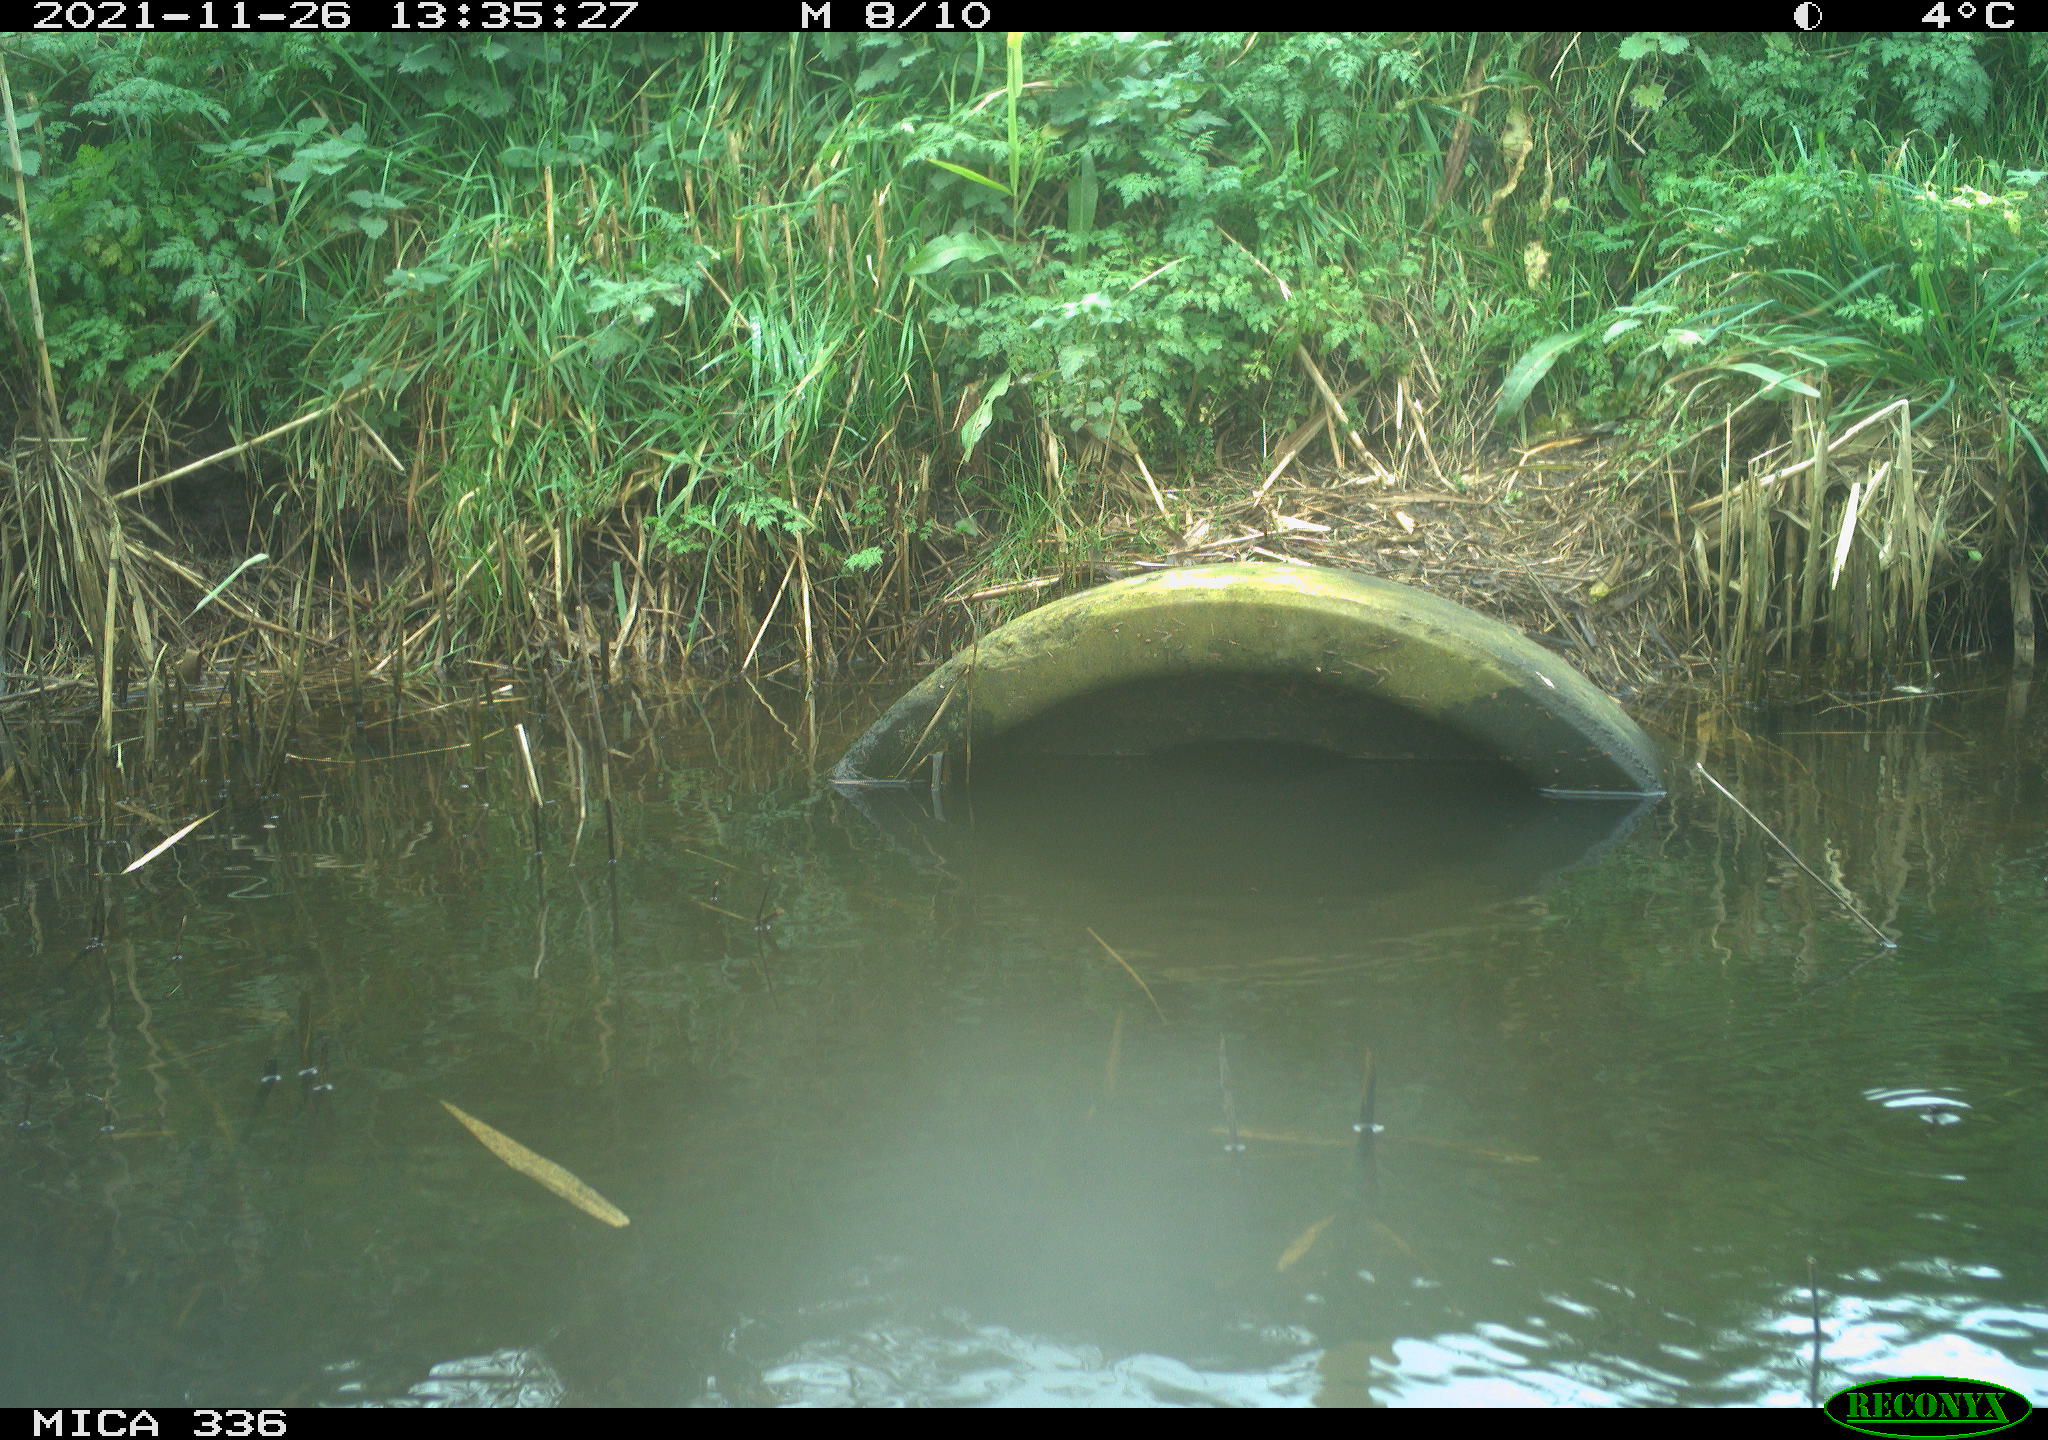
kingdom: Animalia
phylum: Chordata
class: Aves
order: Gruiformes
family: Rallidae
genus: Gallinula
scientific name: Gallinula chloropus
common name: Common moorhen
